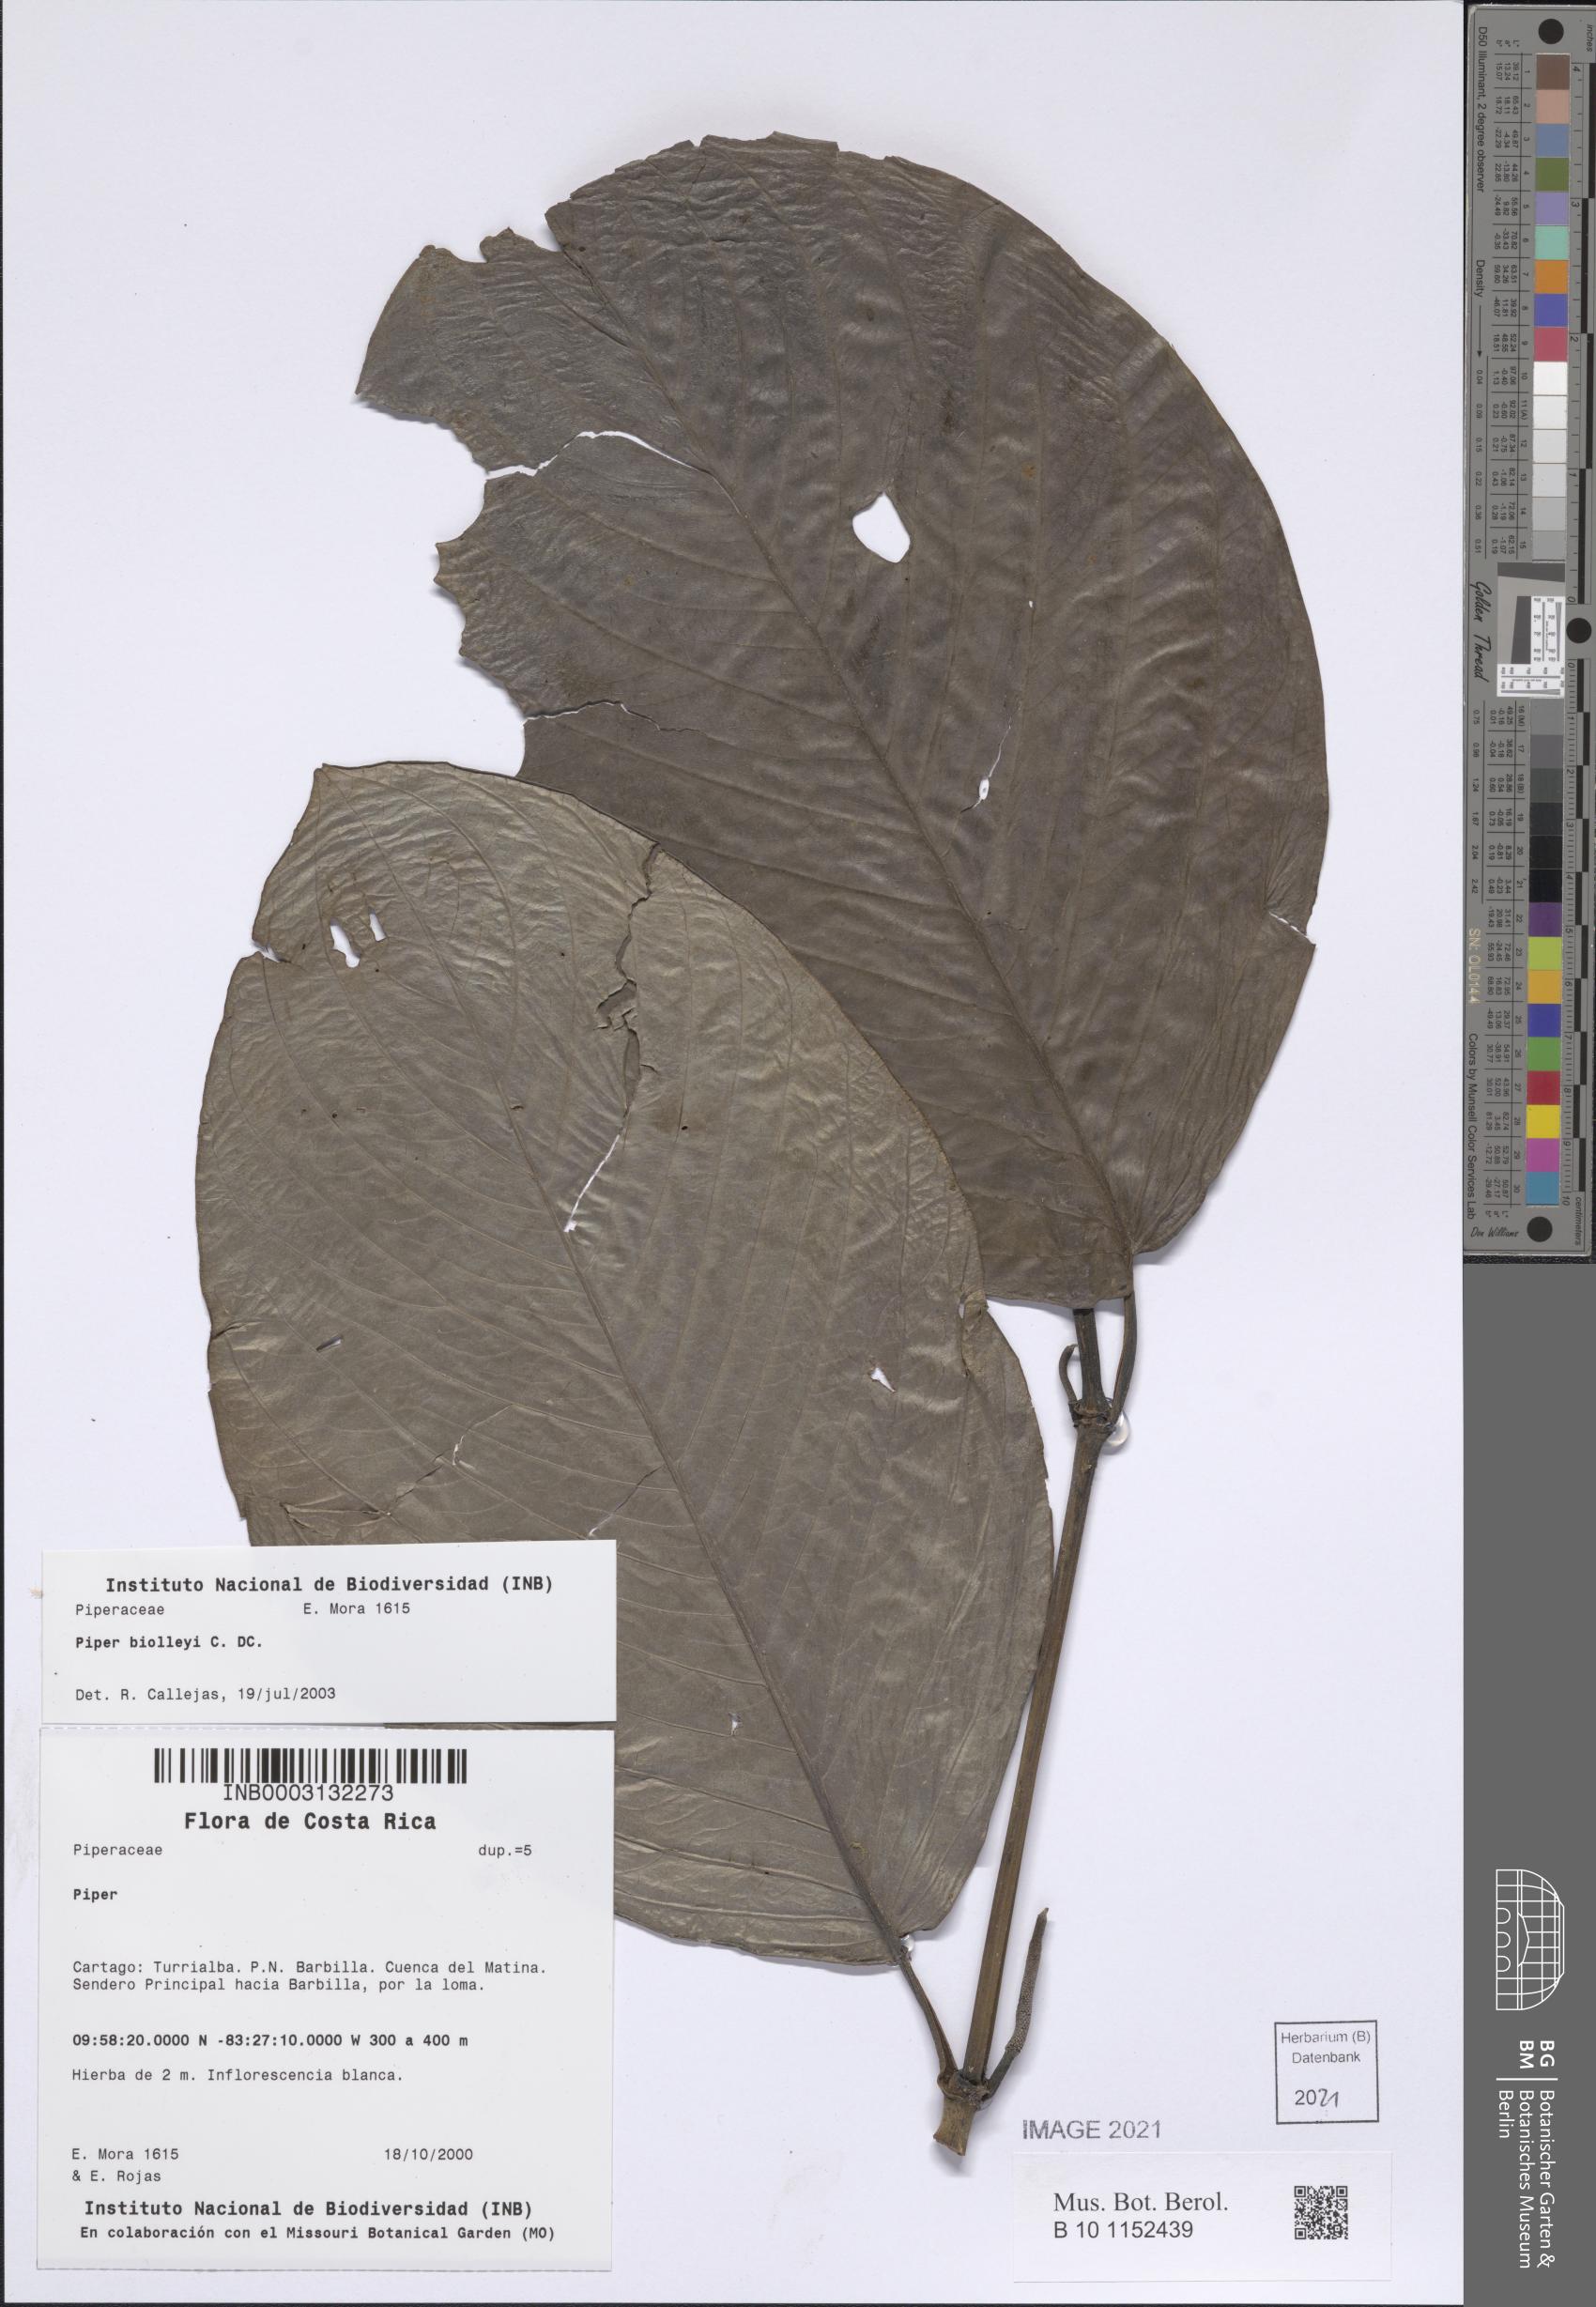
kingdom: Plantae
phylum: Tracheophyta
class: Magnoliopsida
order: Piperales
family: Piperaceae
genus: Piper
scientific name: Piper sublineatum
